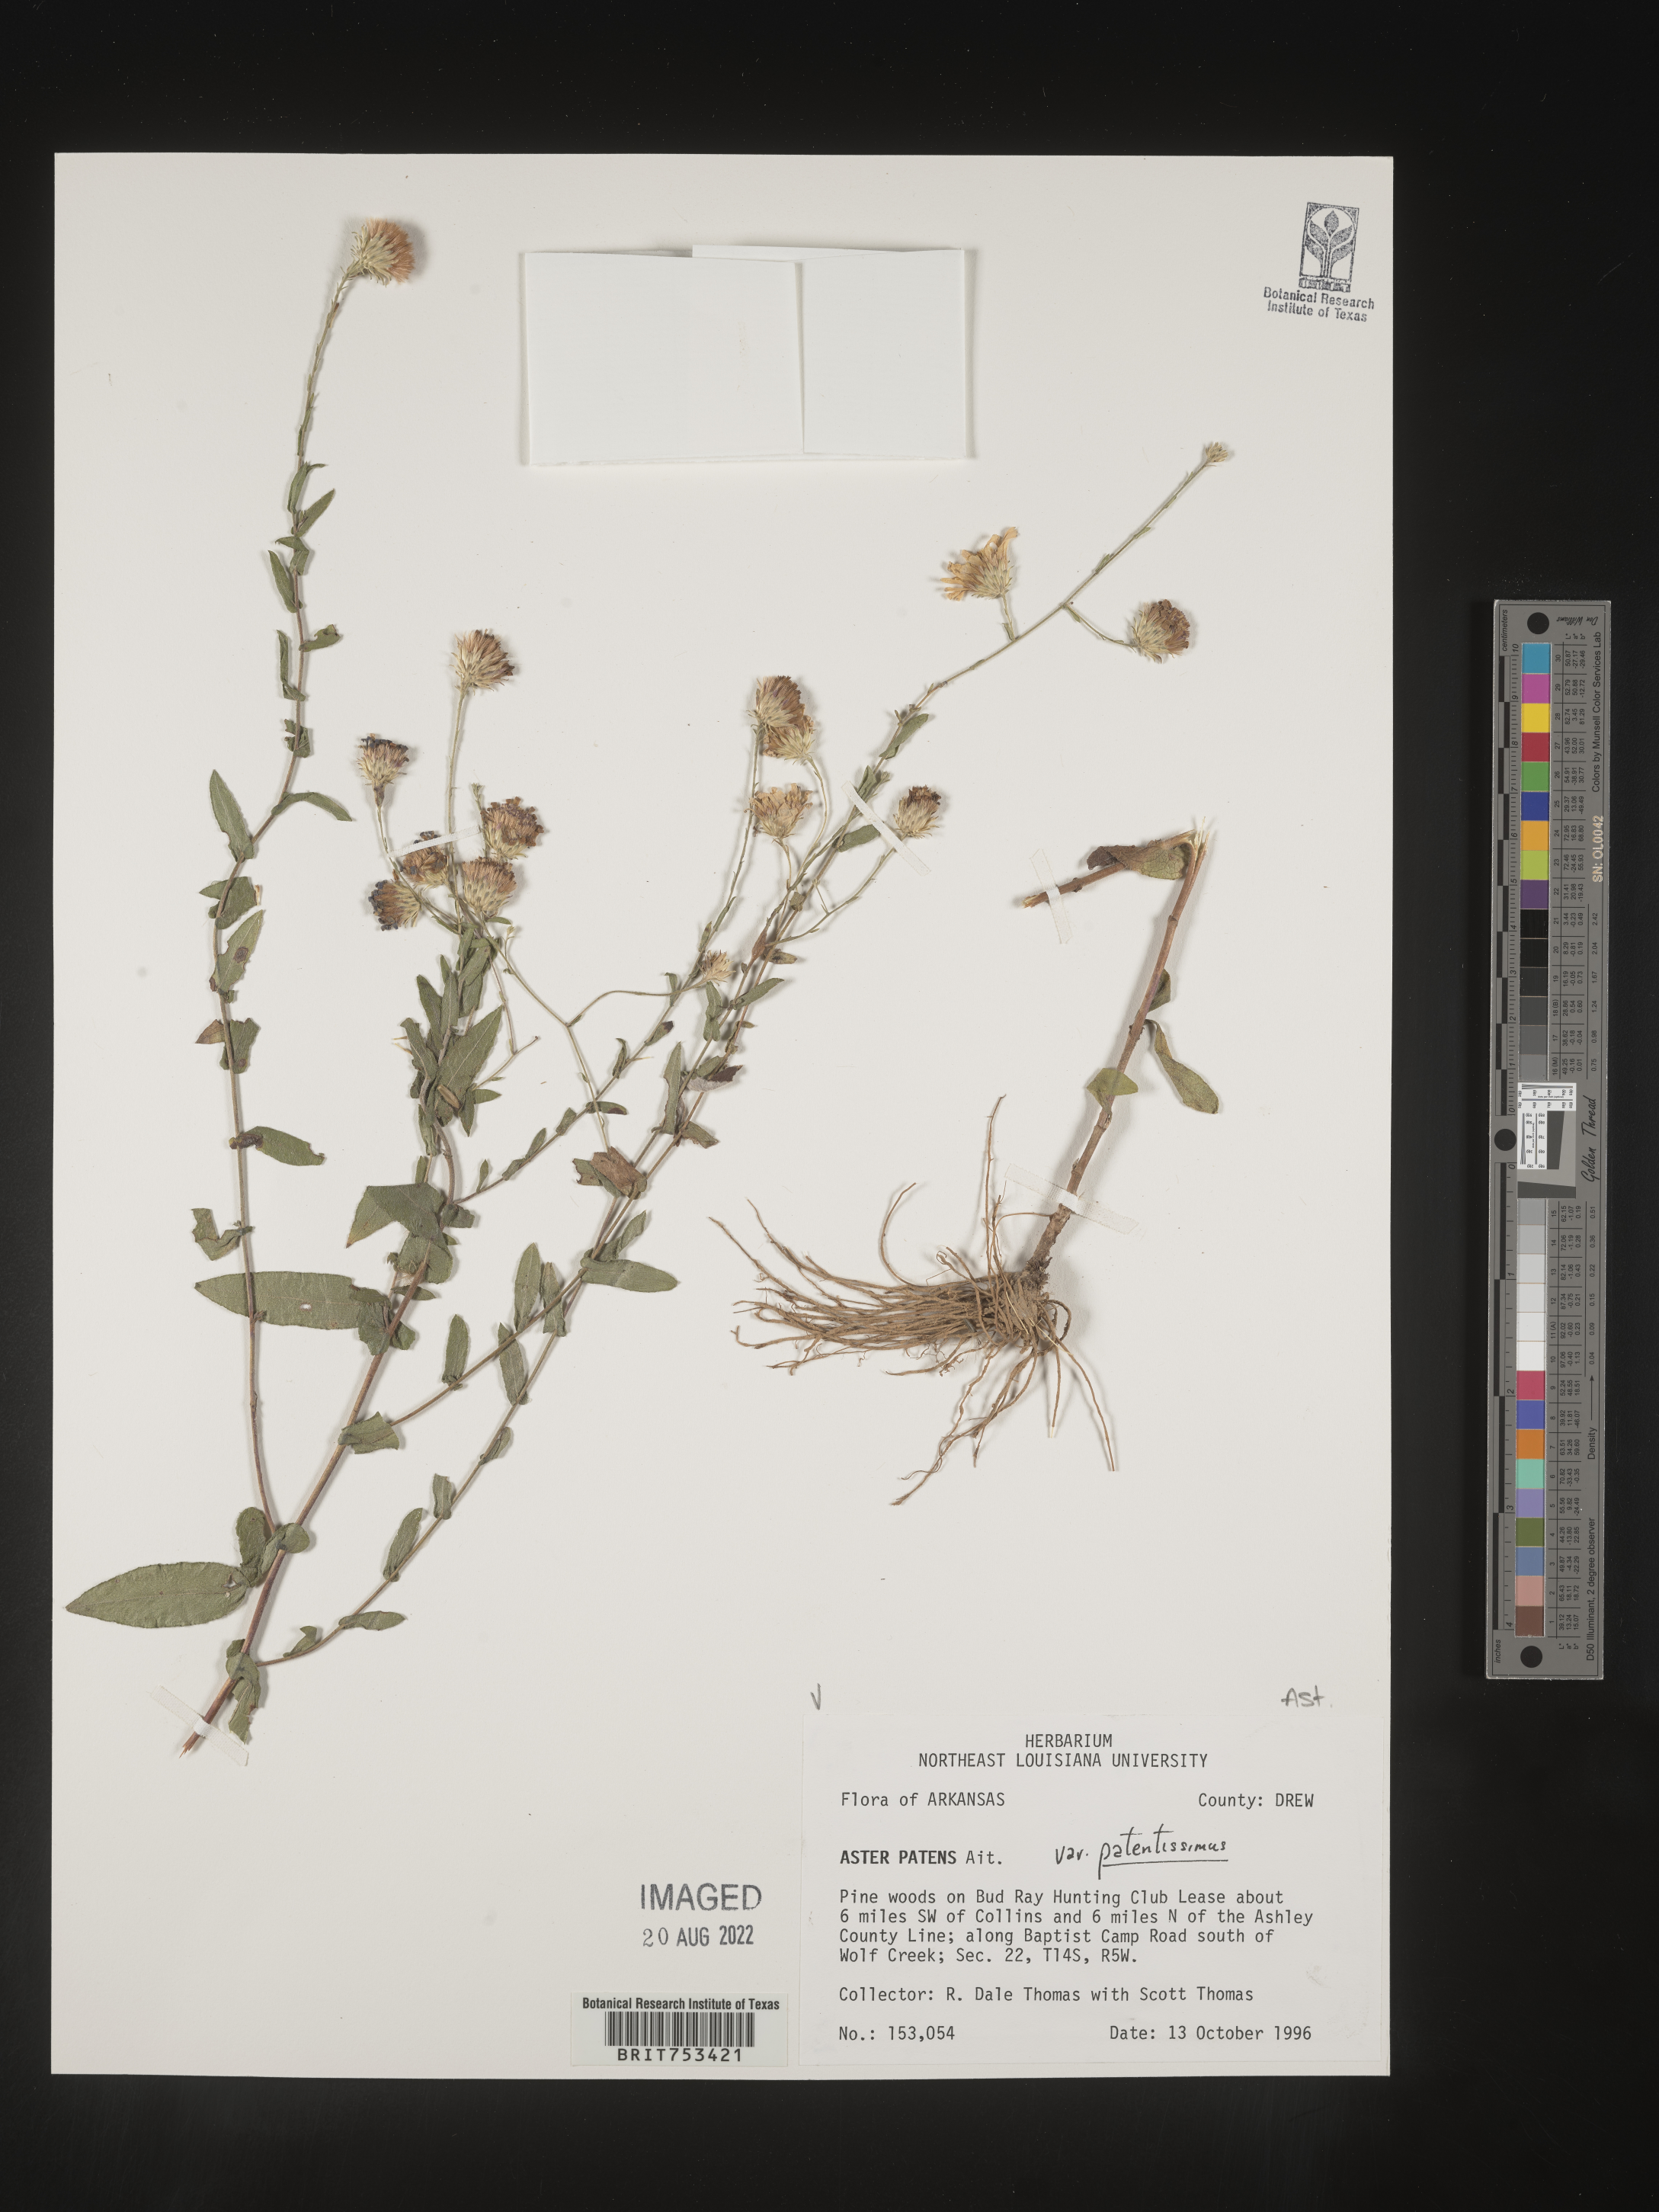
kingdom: Plantae
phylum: Tracheophyta
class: Magnoliopsida
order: Asterales
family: Asteraceae
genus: Symphyotrichum
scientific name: Symphyotrichum patens
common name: Late purple aster
